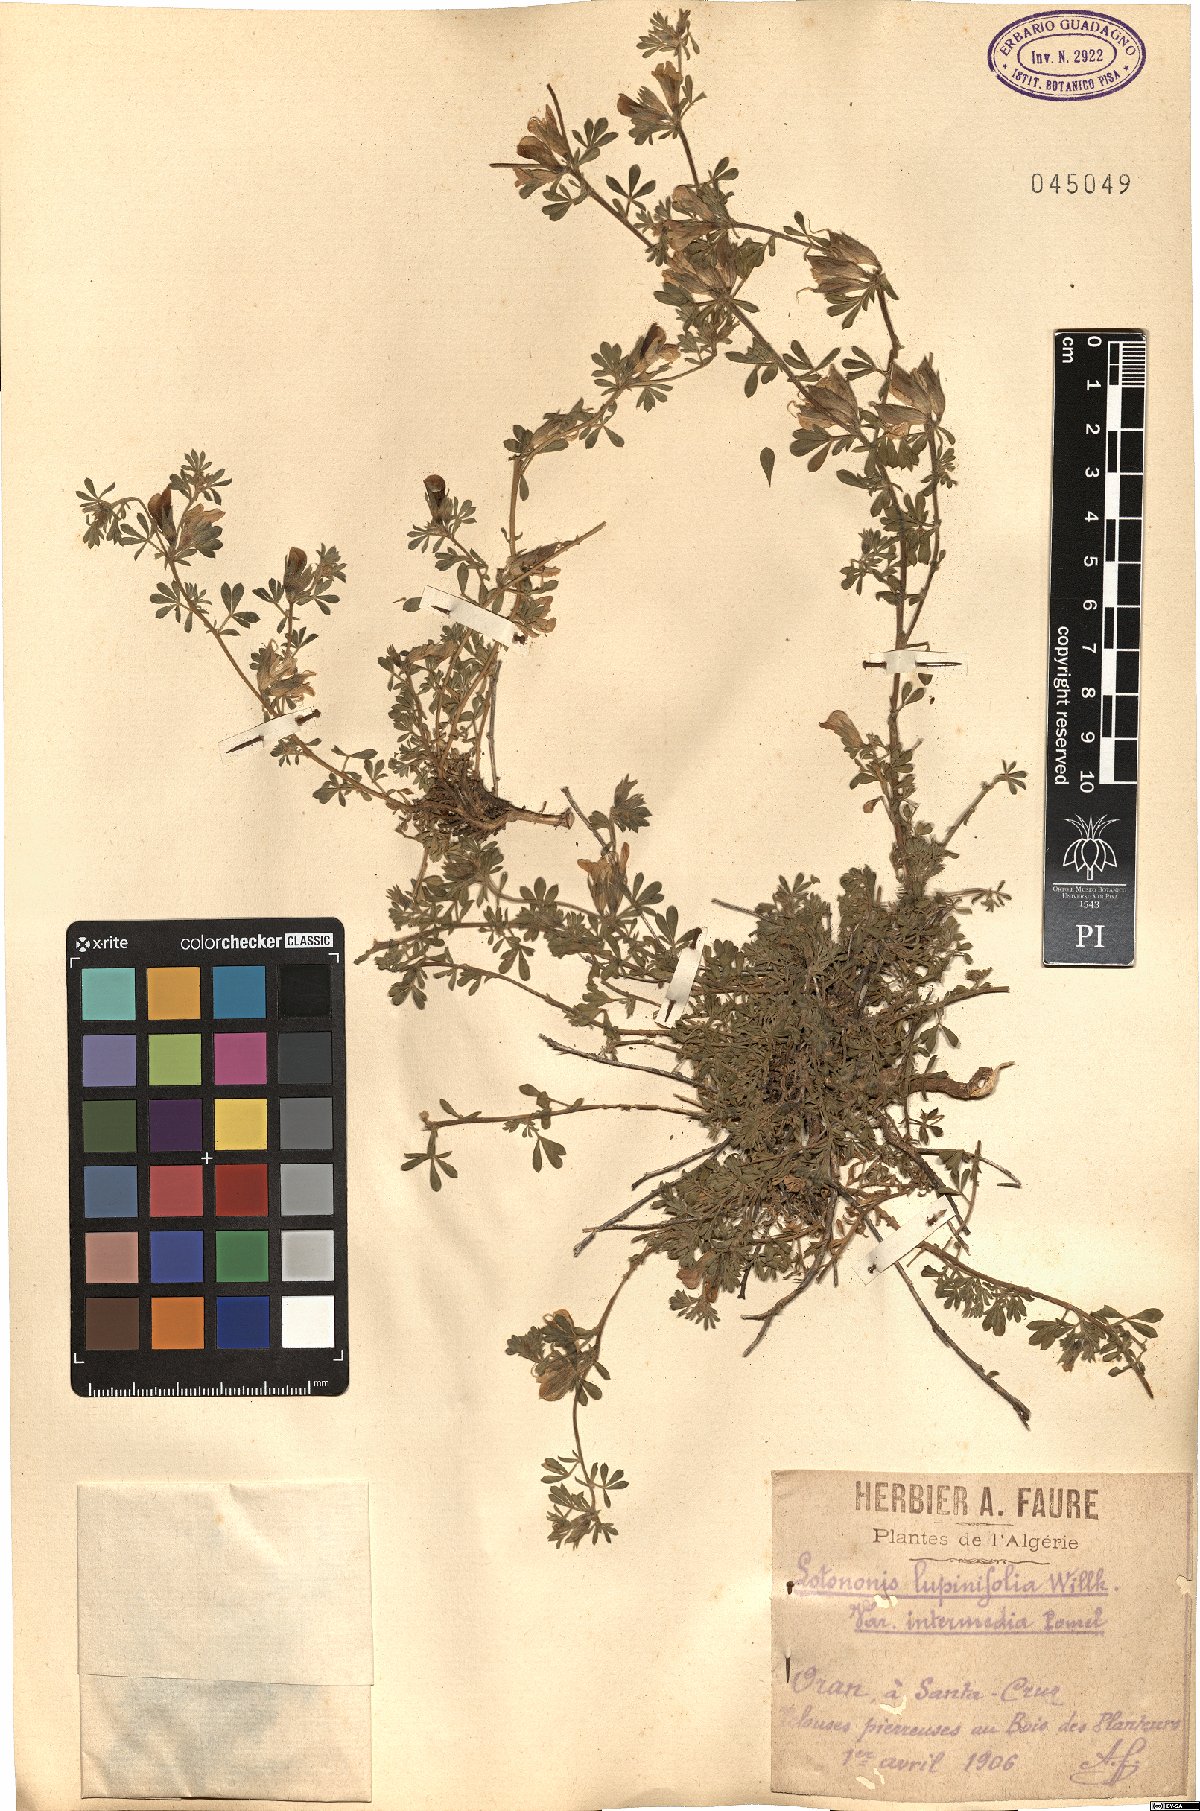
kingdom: Plantae
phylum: Tracheophyta
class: Magnoliopsida
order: Fabales
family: Fabaceae
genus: Leobordea
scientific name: Leobordea lupinifolia
